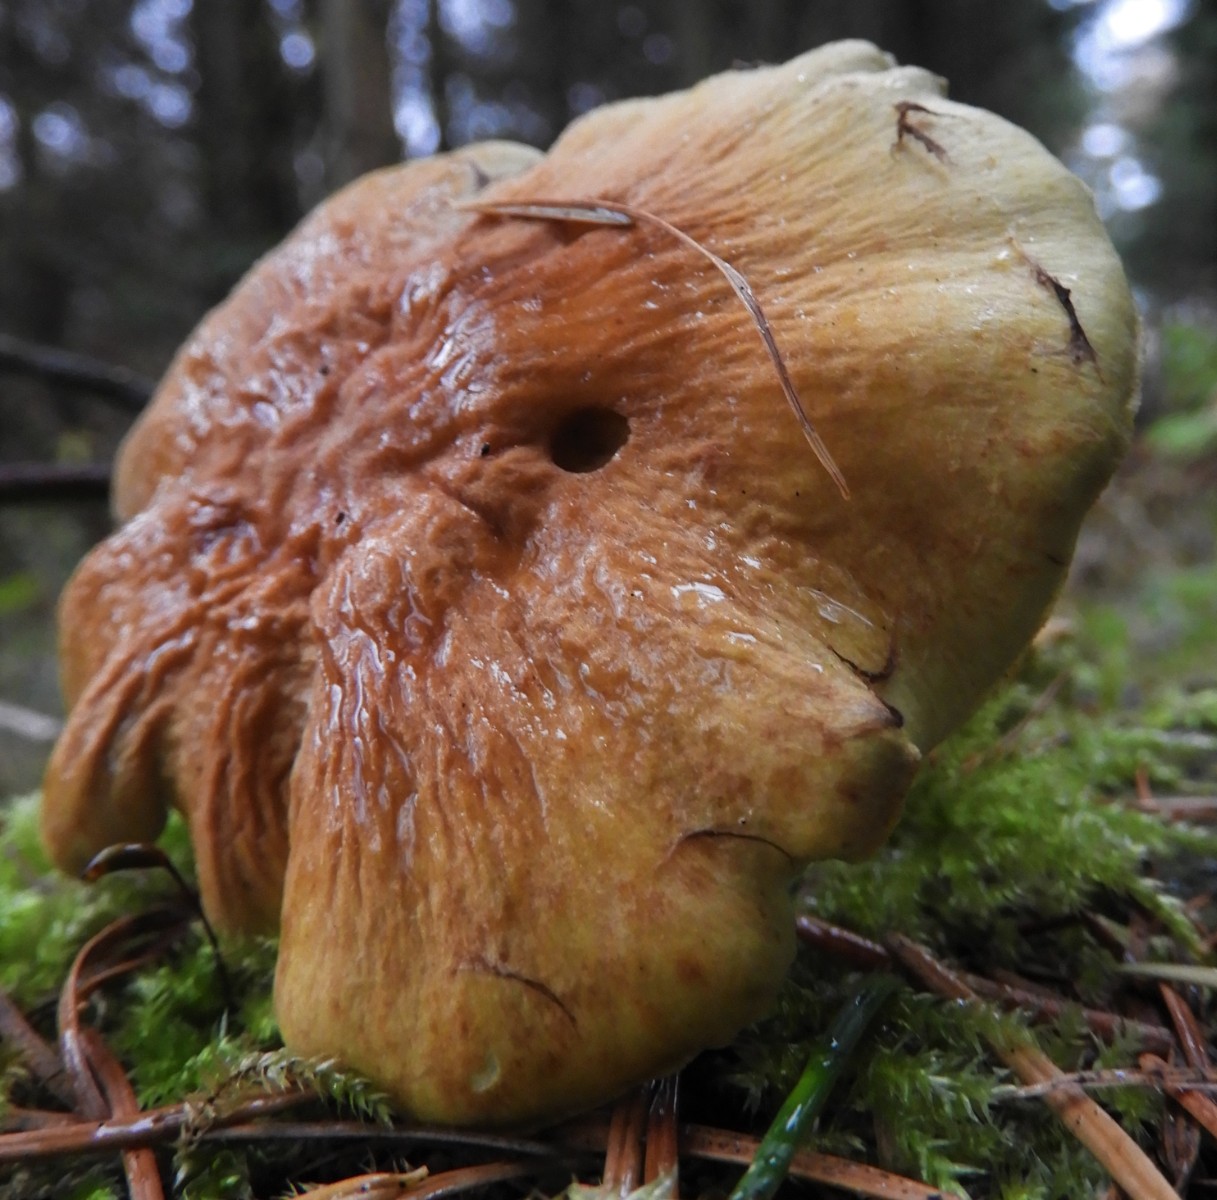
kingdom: Fungi
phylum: Basidiomycota
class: Agaricomycetes
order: Agaricales
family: Strophariaceae
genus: Hypholoma
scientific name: Hypholoma lateritium
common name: teglrød svovlhat
